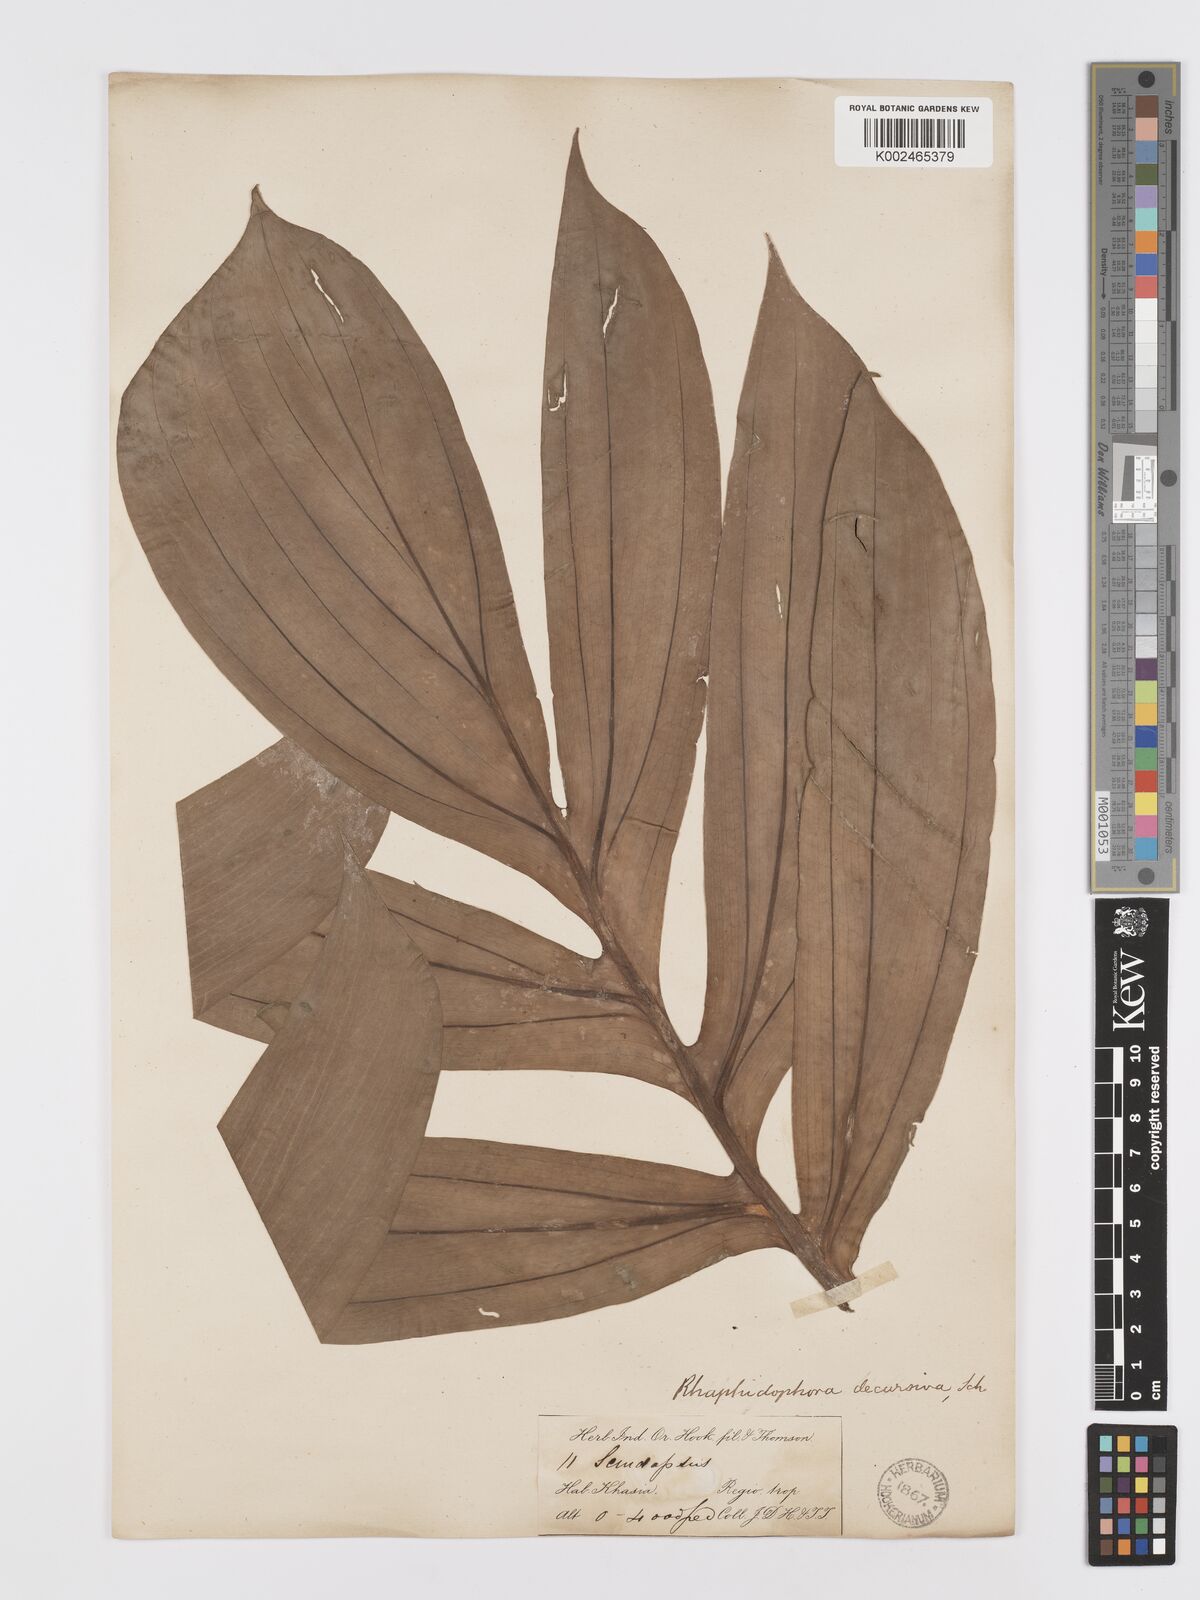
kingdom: Plantae
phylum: Tracheophyta
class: Liliopsida
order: Alismatales
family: Araceae
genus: Rhaphidophora
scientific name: Rhaphidophora decursiva
